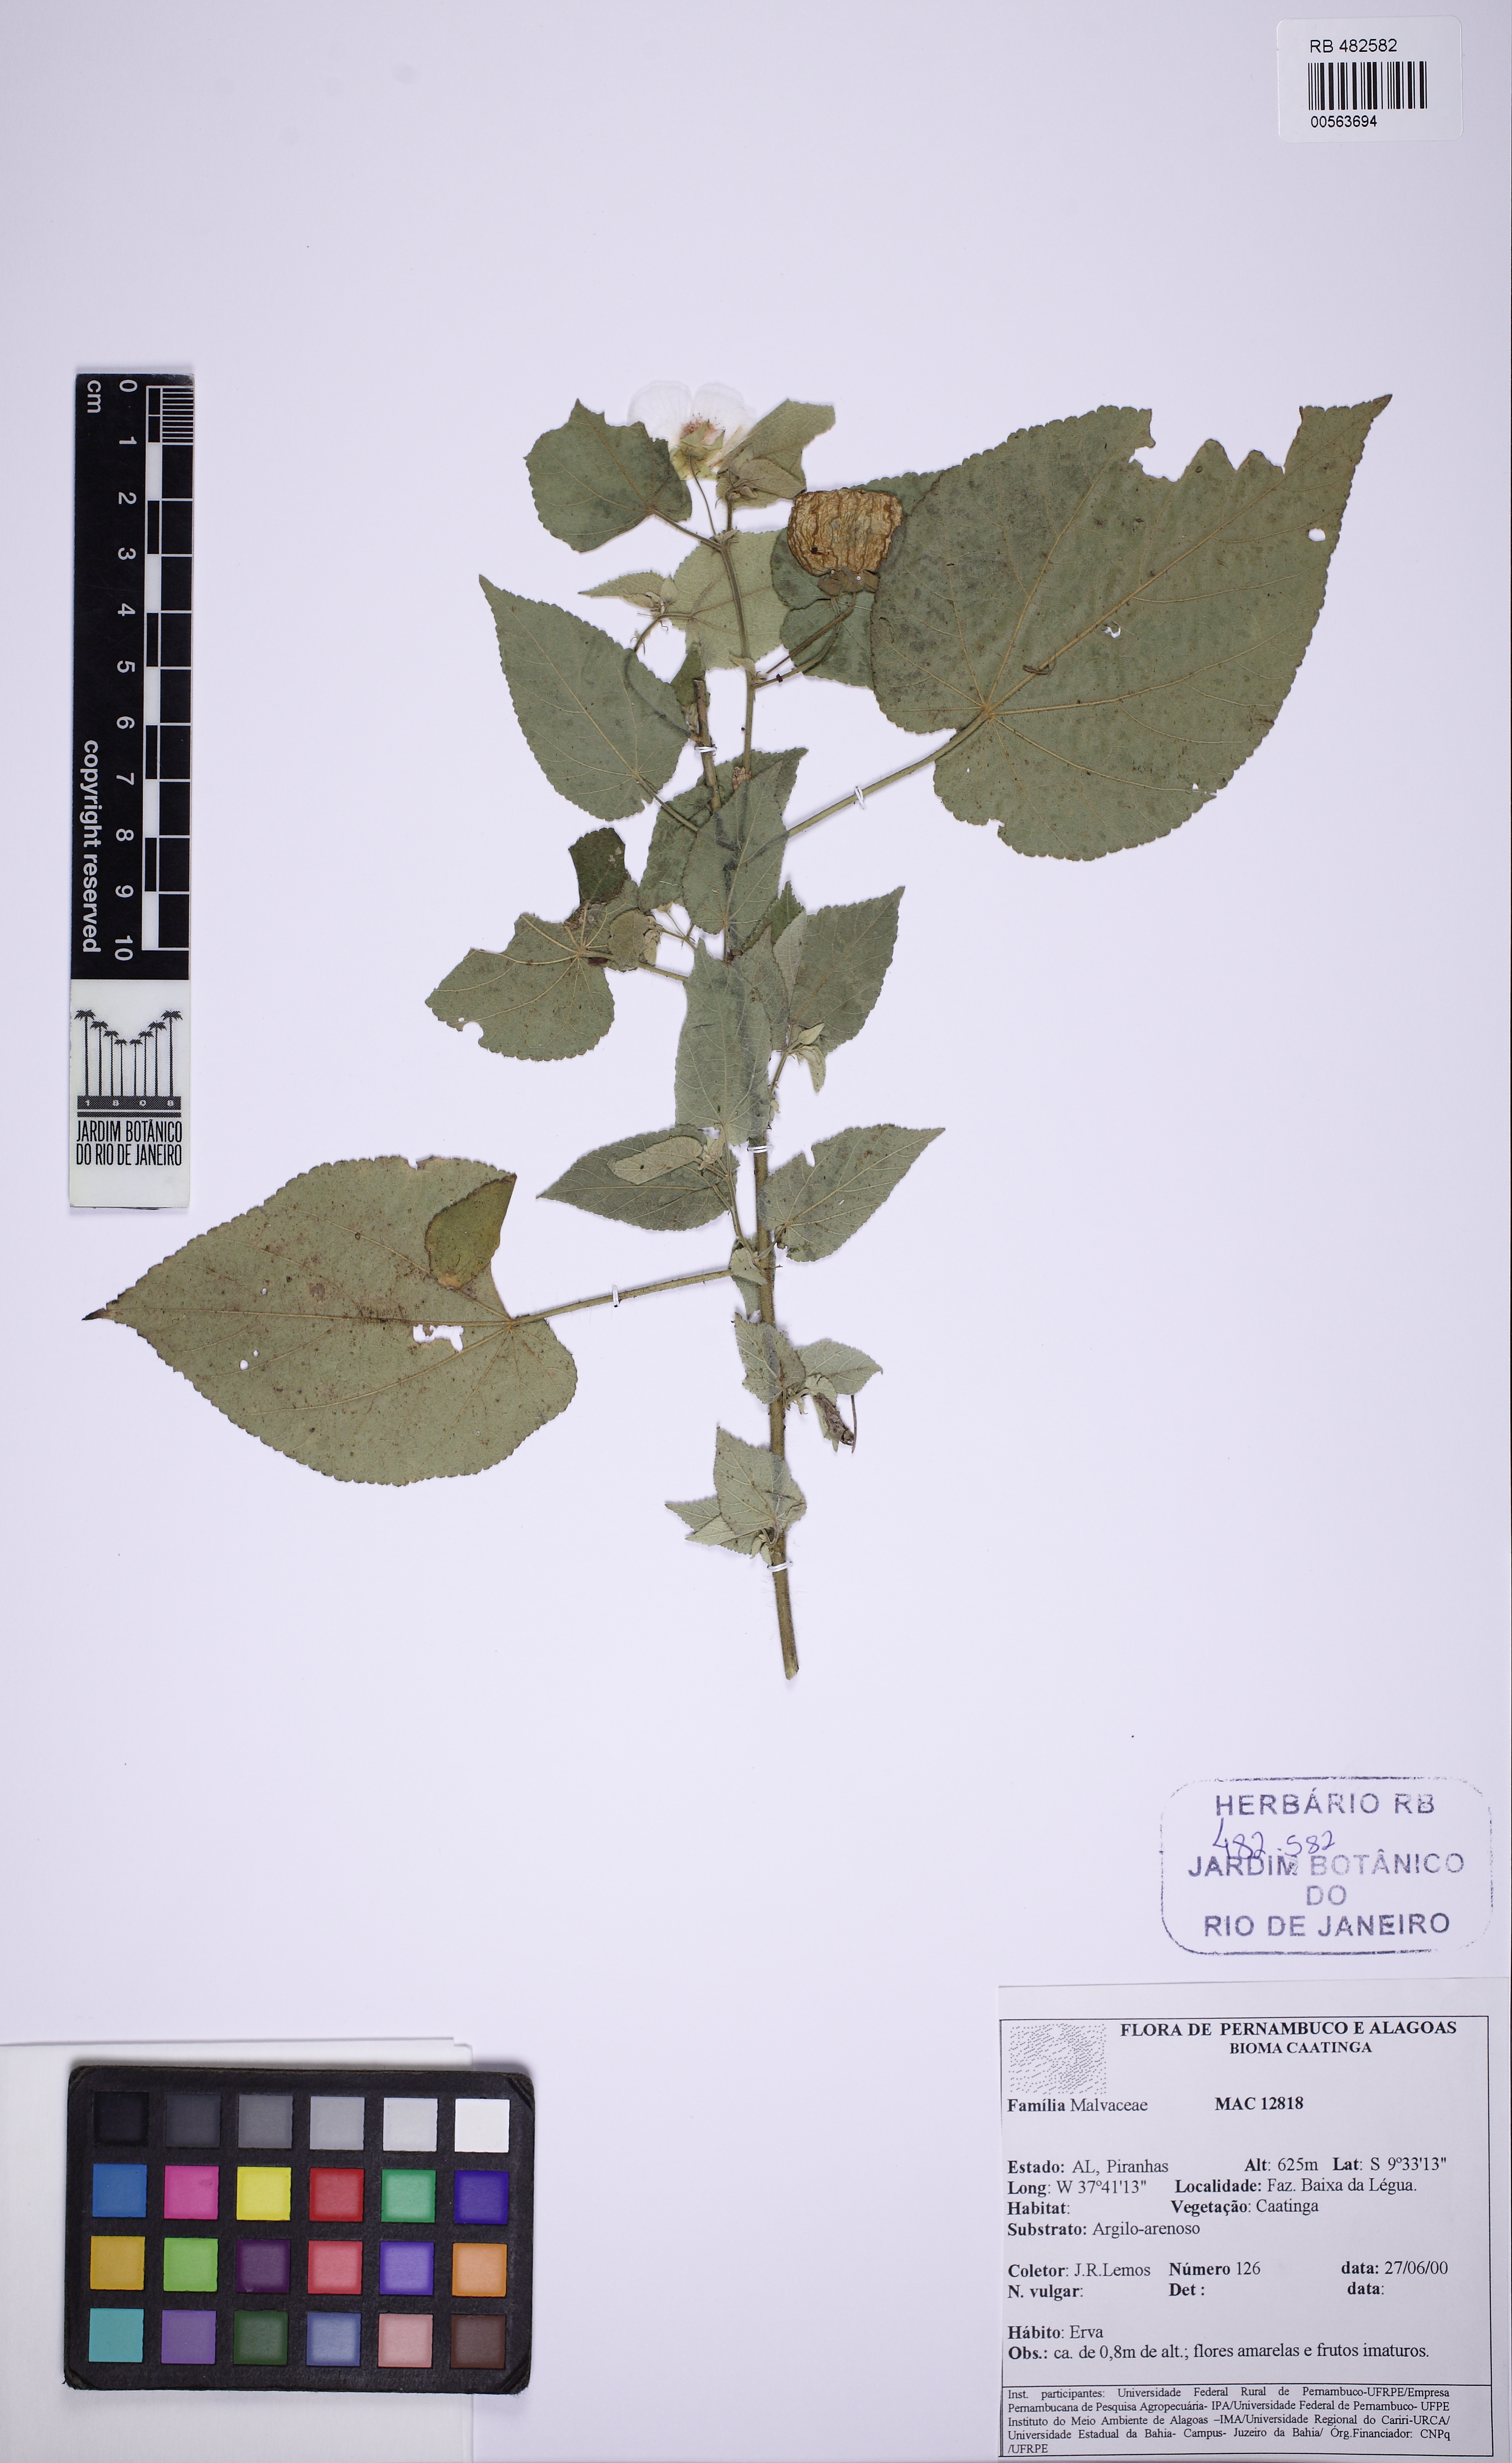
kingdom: Plantae
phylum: Tracheophyta
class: Magnoliopsida
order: Malvales
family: Malvaceae
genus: Herissantia
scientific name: Herissantia
